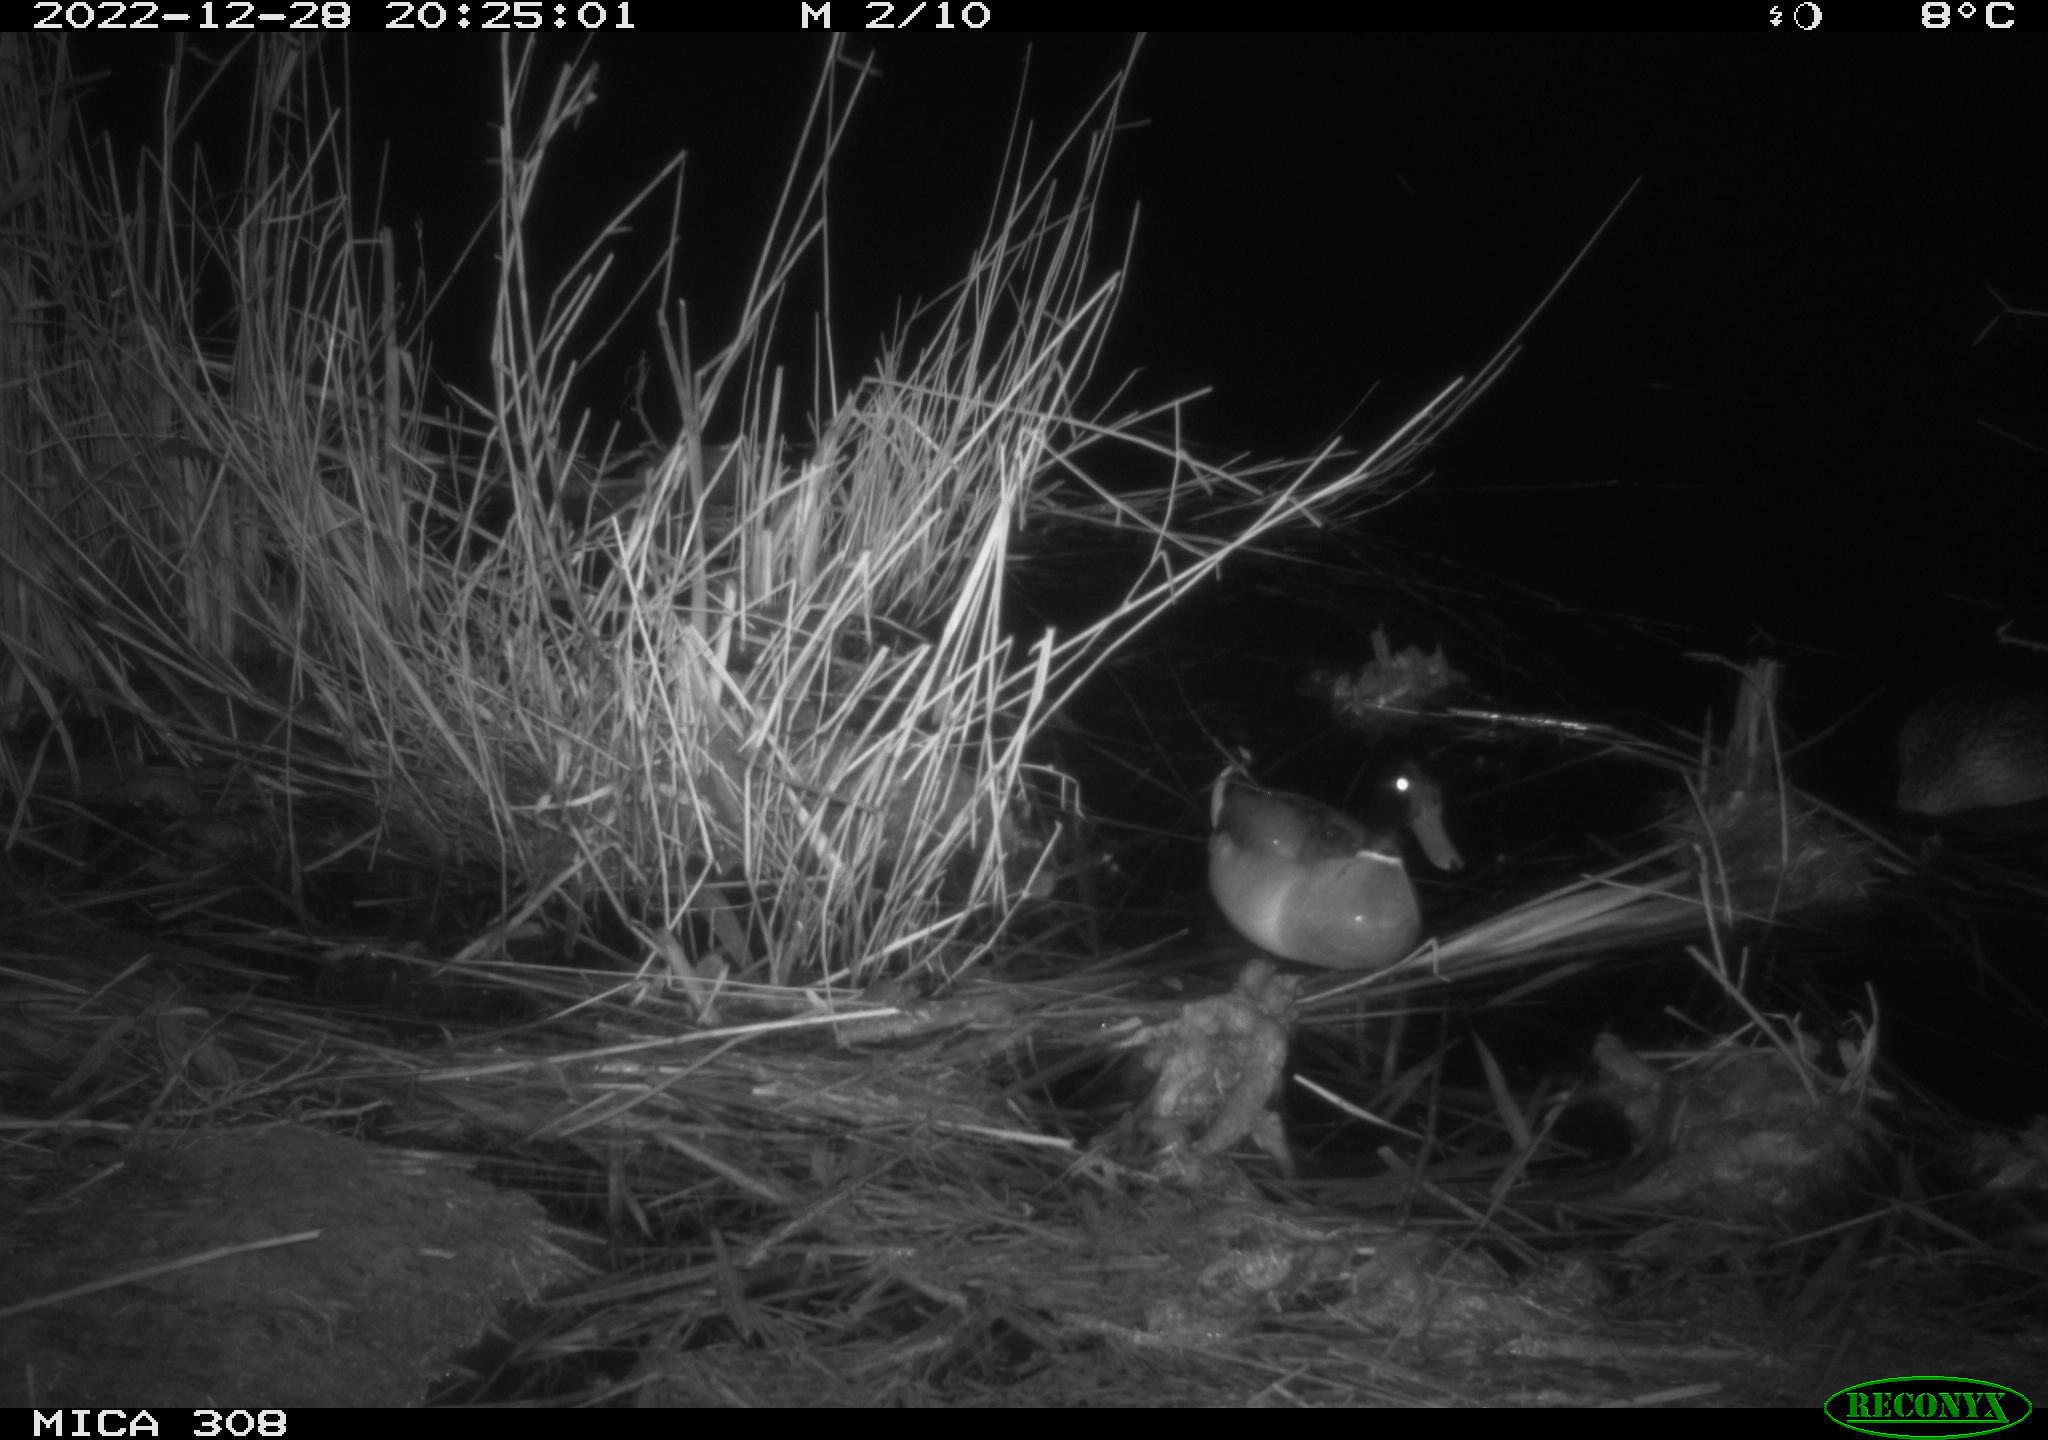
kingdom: Animalia
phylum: Chordata
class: Mammalia
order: Rodentia
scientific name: Rodentia
